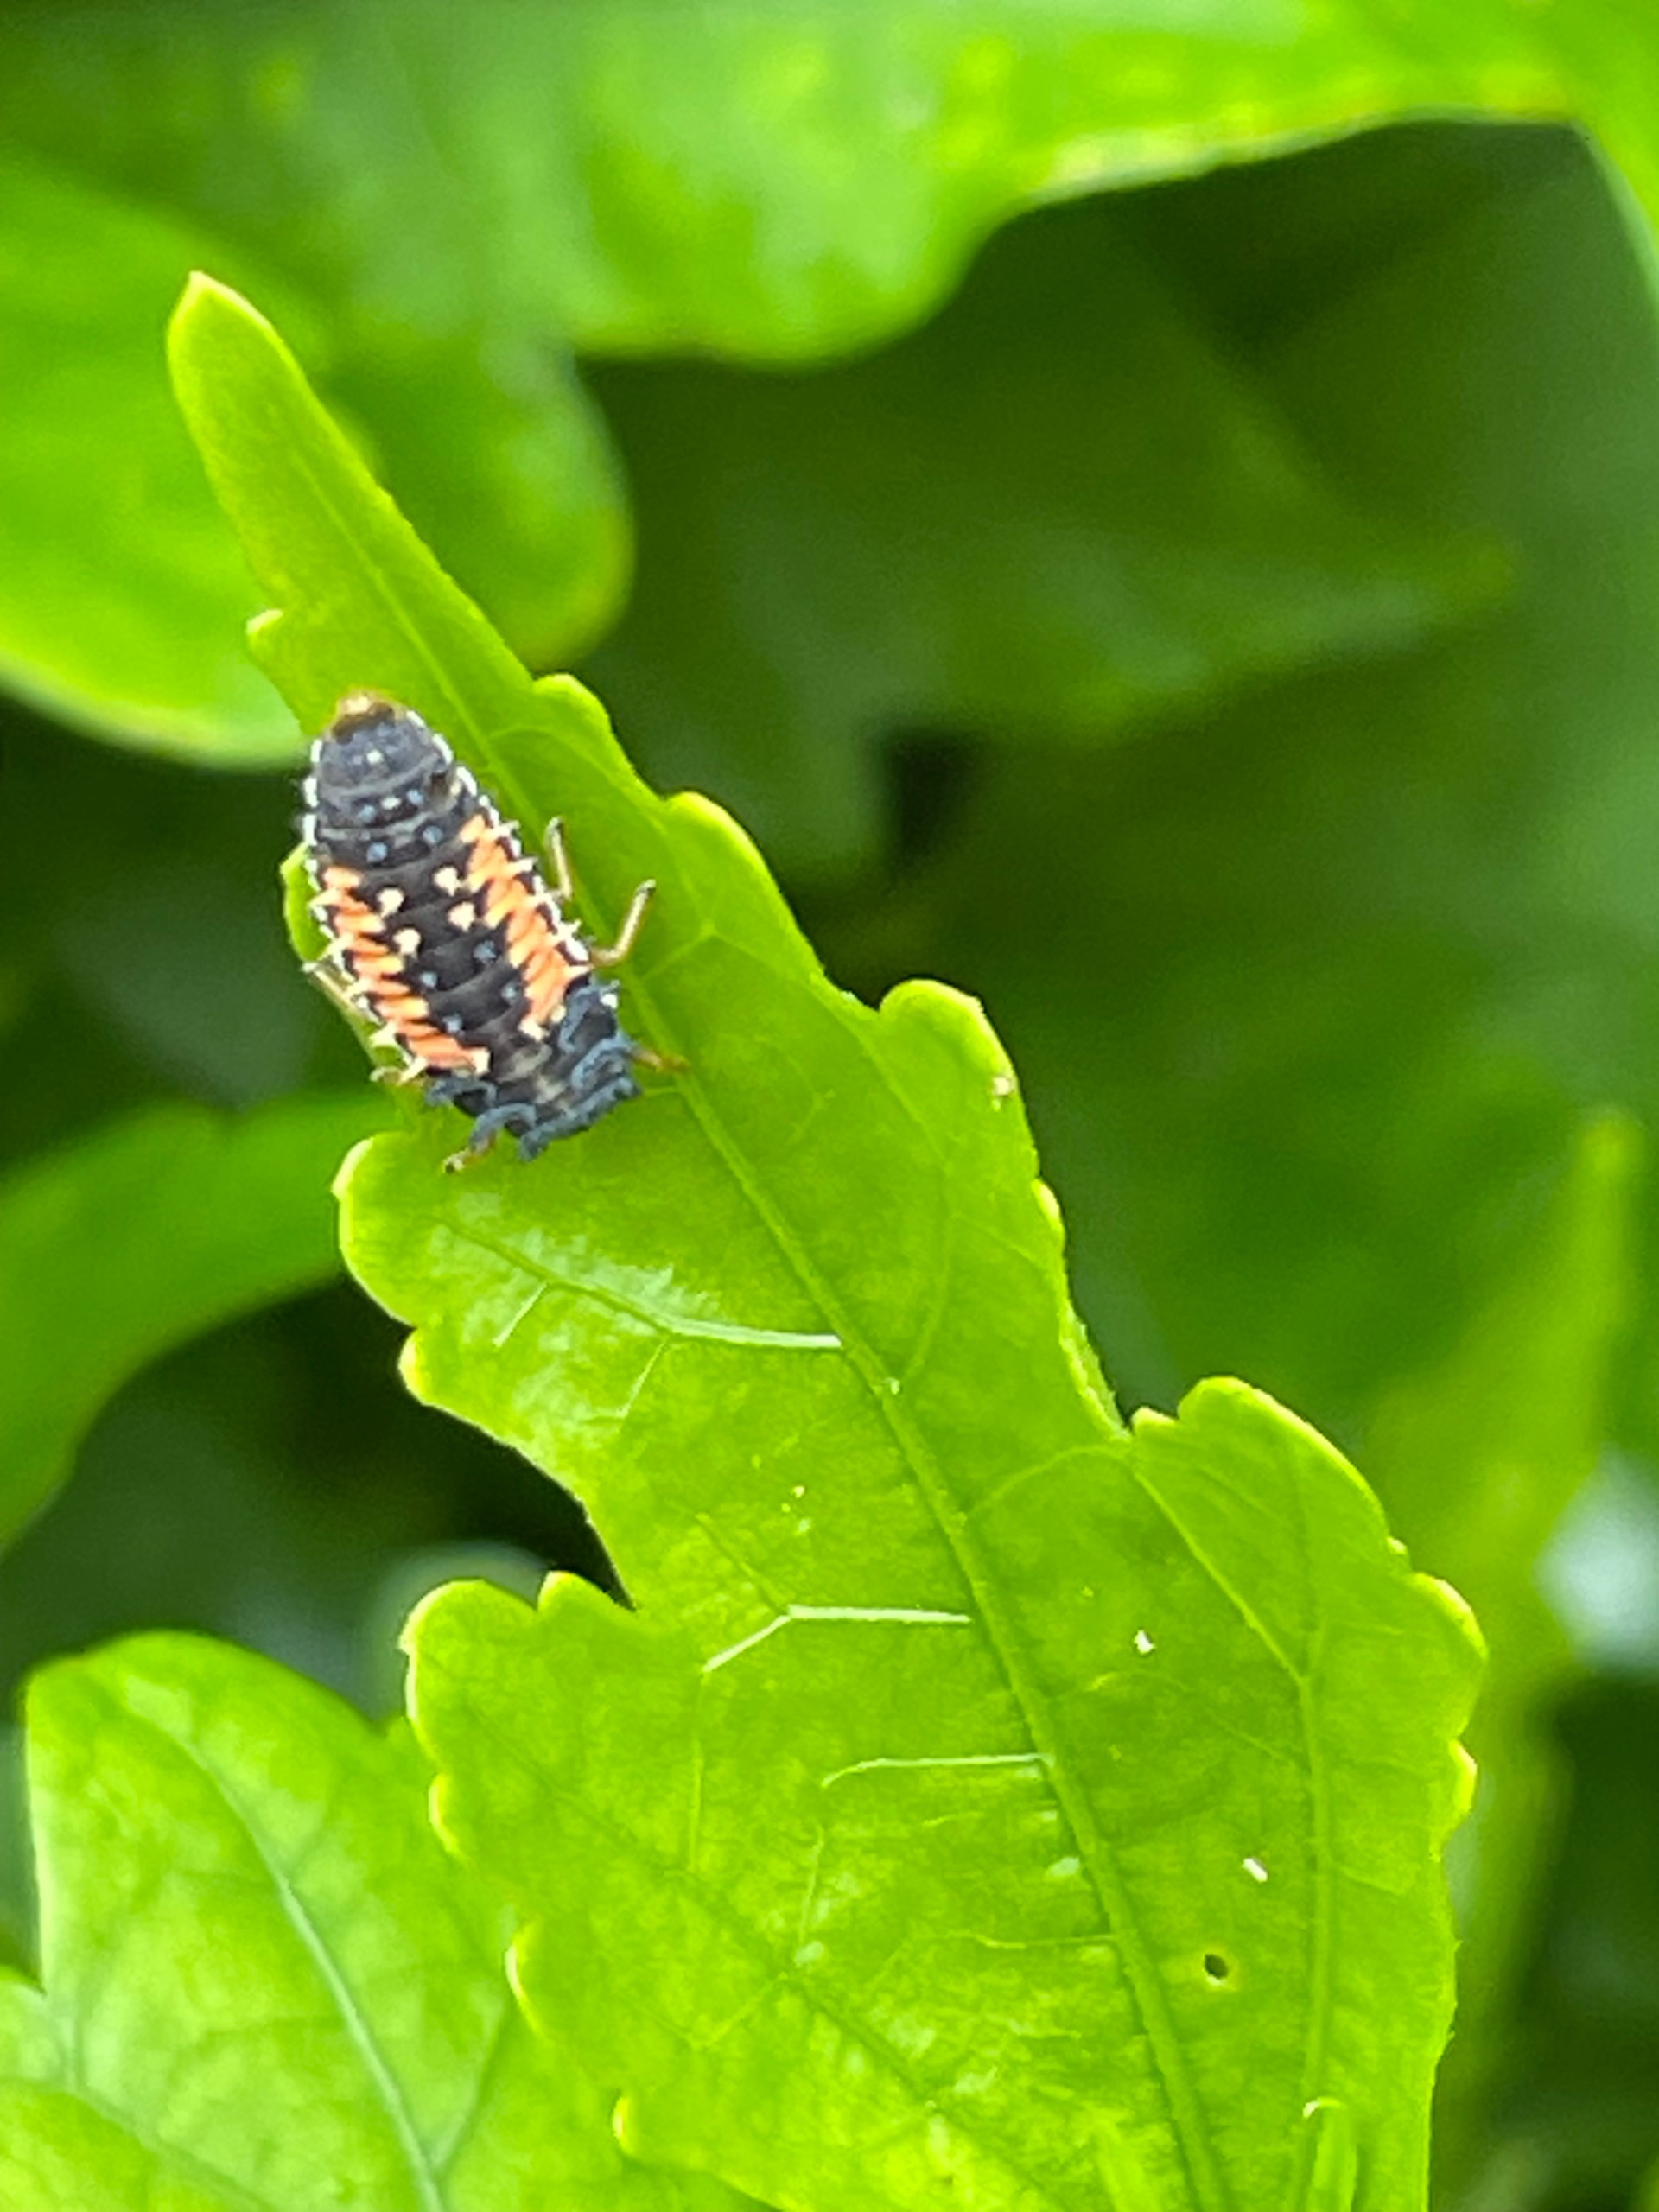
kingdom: Animalia
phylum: Arthropoda
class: Insecta
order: Coleoptera
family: Coccinellidae
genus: Harmonia
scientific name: Harmonia axyridis
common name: Harlekinmariehøne
